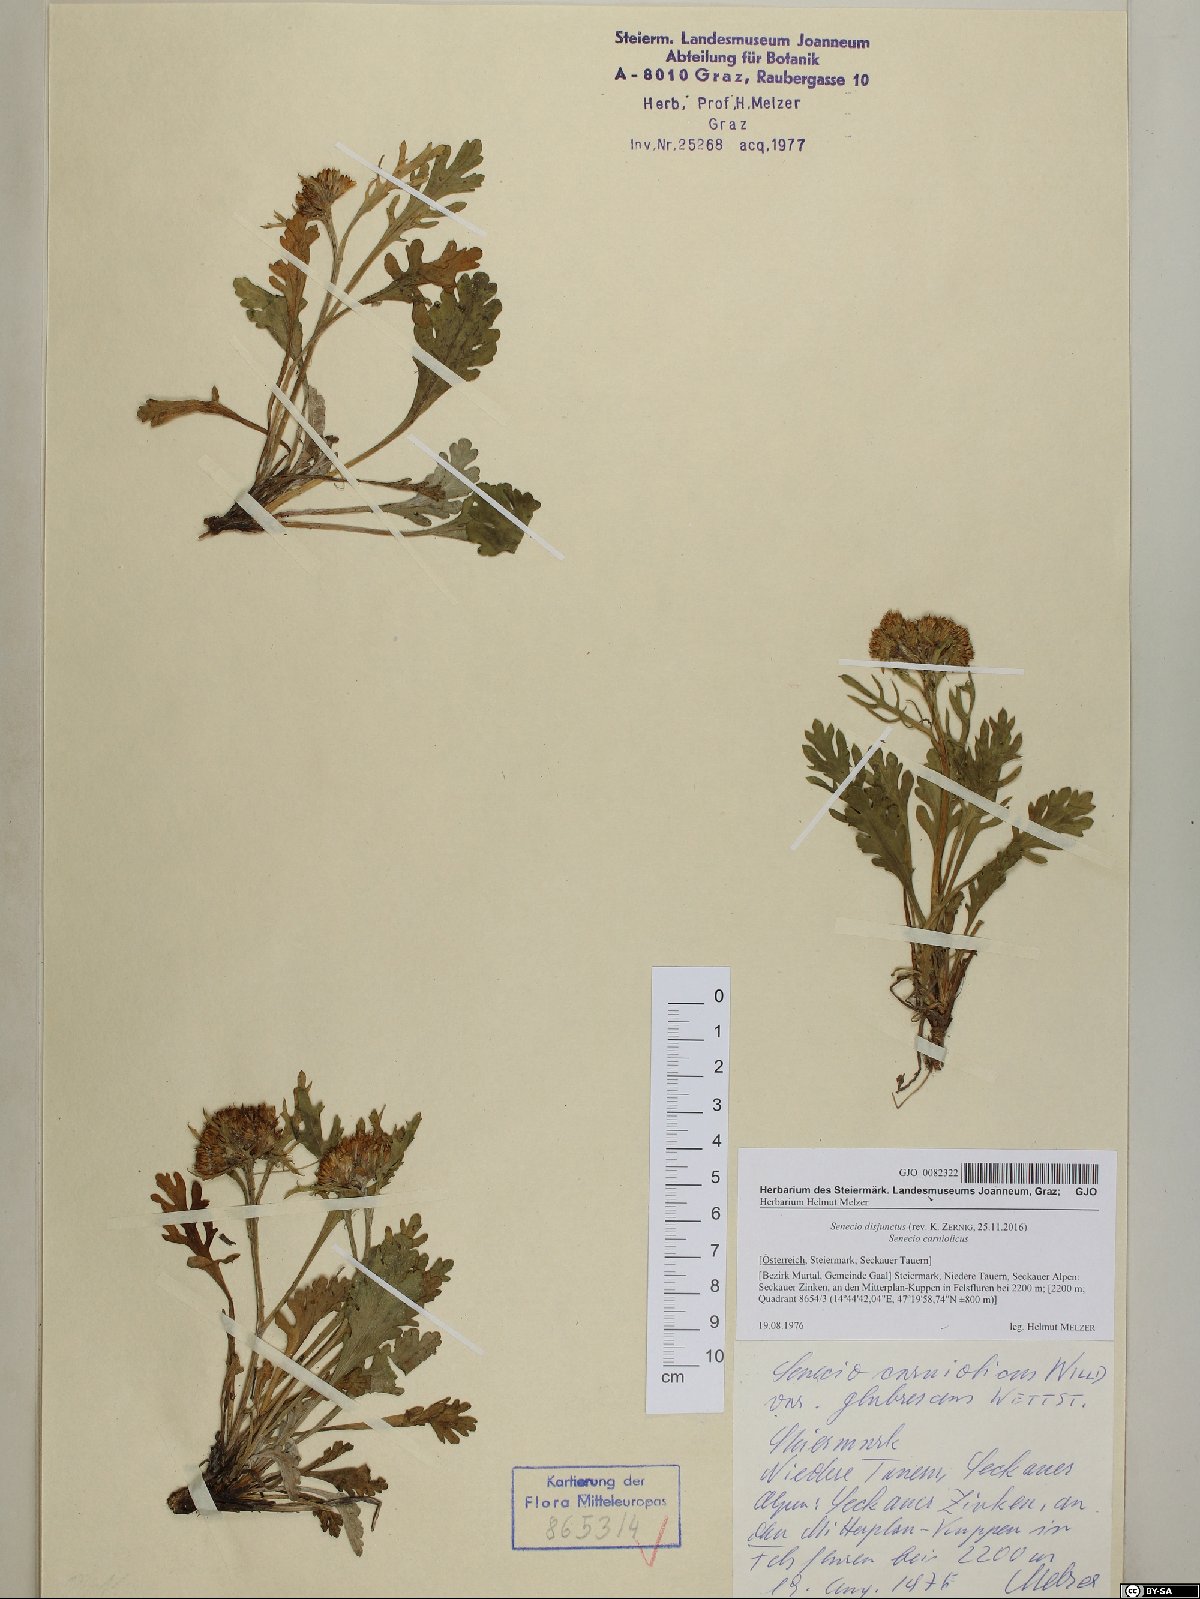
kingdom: Plantae
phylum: Tracheophyta
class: Magnoliopsida
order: Asterales
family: Asteraceae
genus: Jacobaea
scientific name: Jacobaea disjuncta
